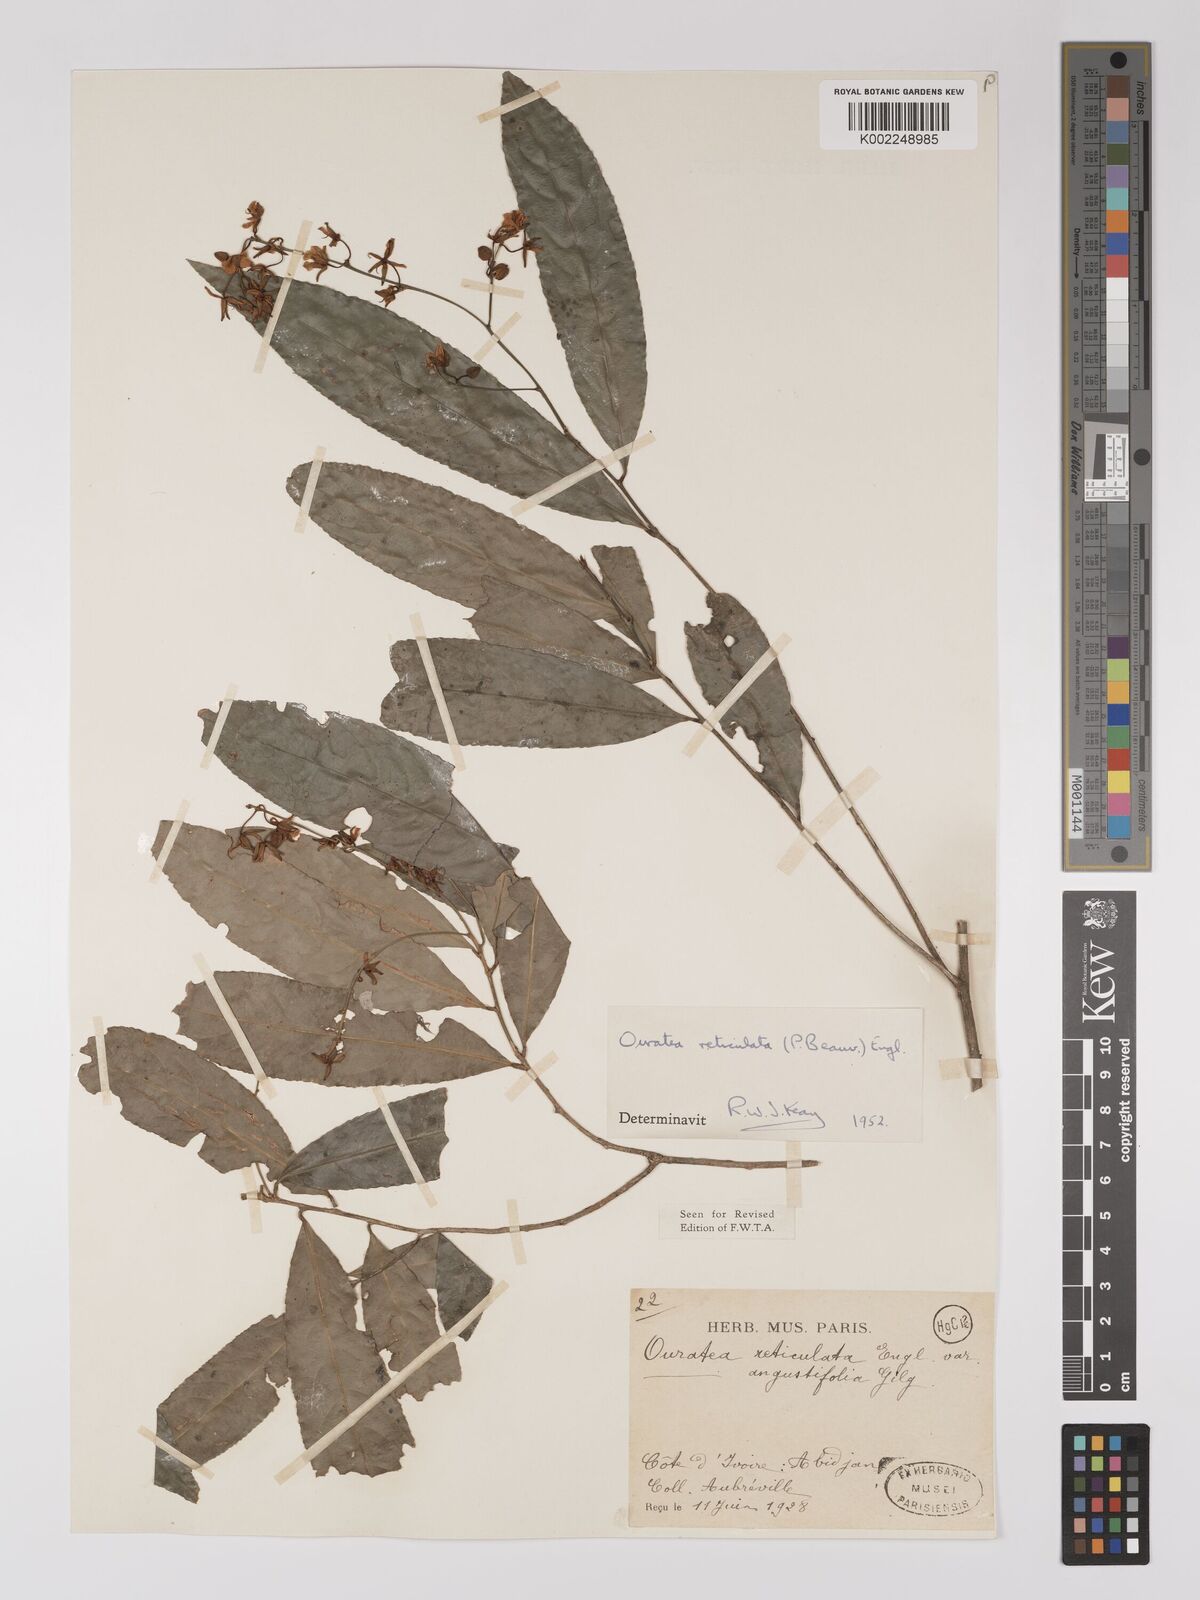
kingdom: Plantae
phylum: Tracheophyta
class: Magnoliopsida
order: Malpighiales
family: Ochnaceae
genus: Campylospermum
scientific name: Campylospermum reticulatum
